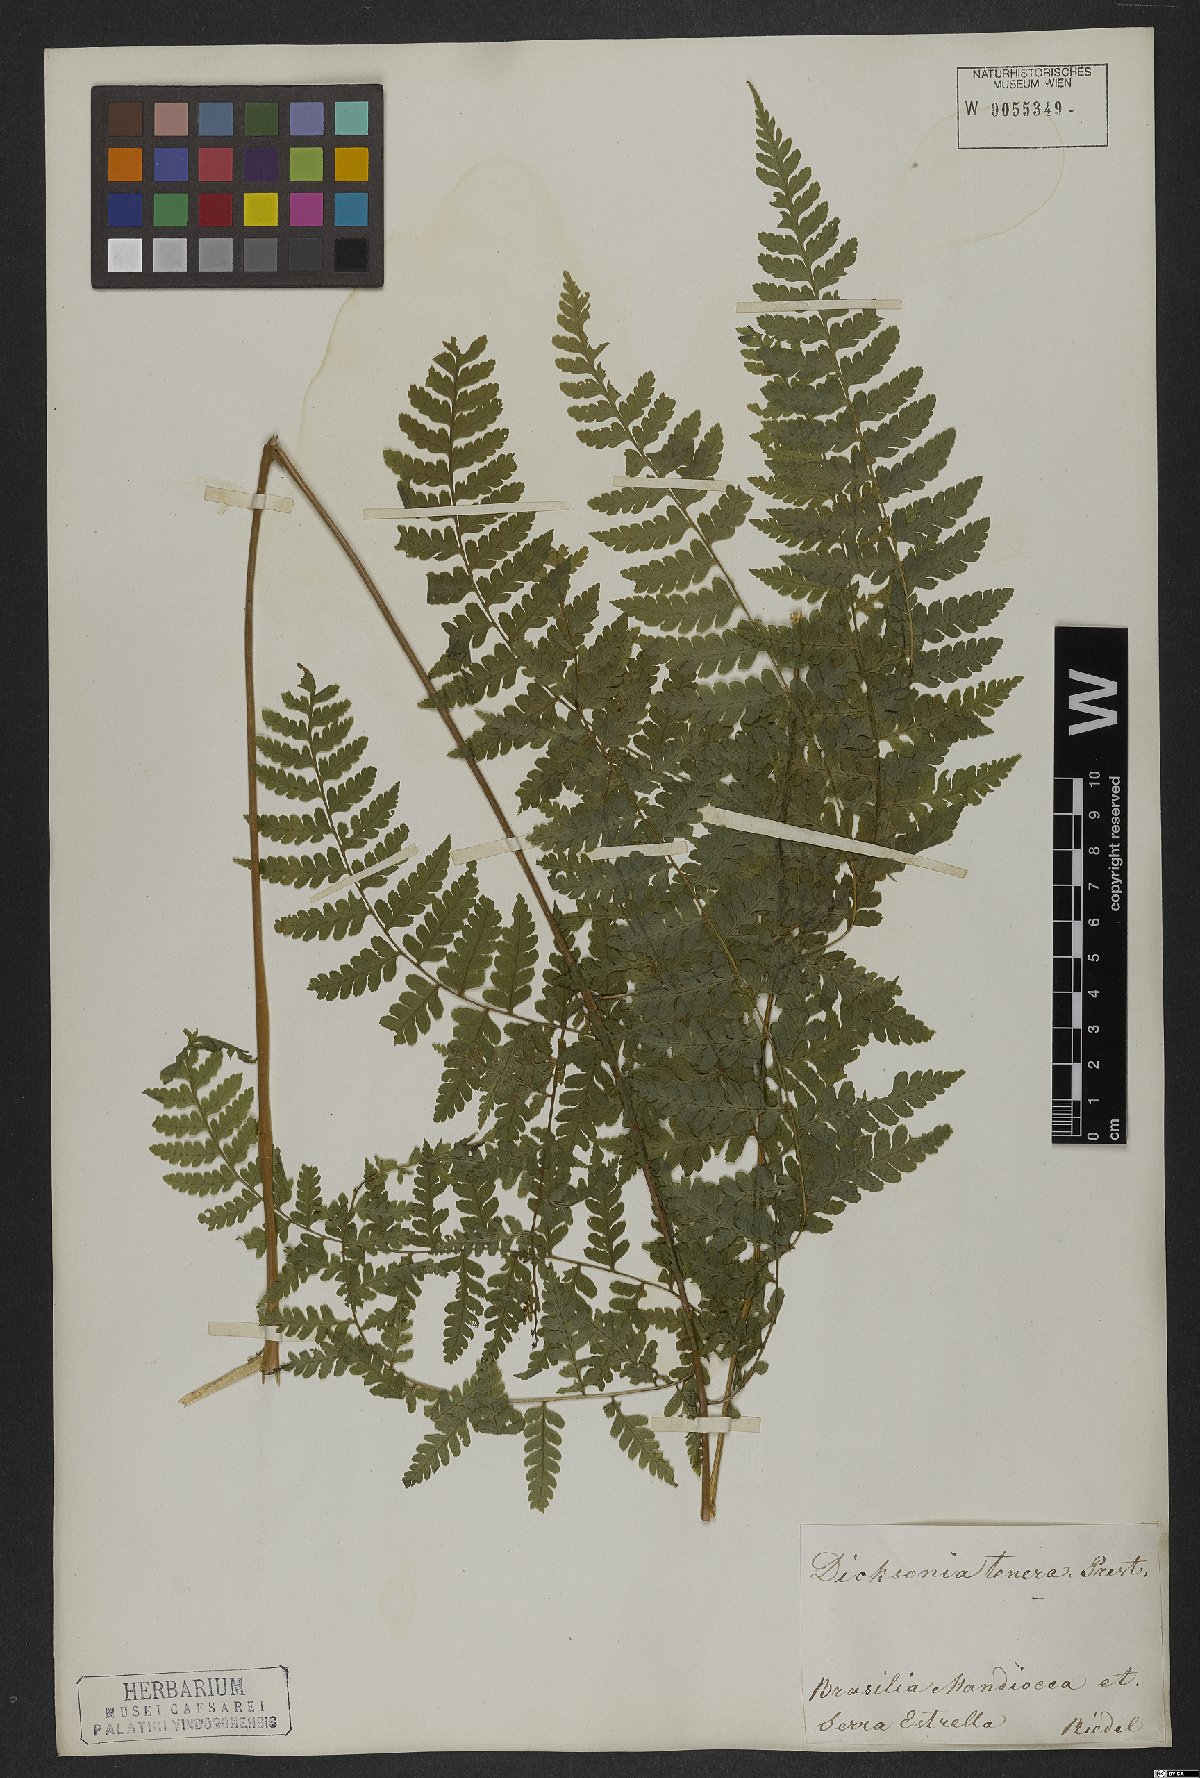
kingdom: Plantae
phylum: Tracheophyta
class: Polypodiopsida
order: Polypodiales
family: Dennstaedtiaceae
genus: Mucura
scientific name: Mucura globulifera
